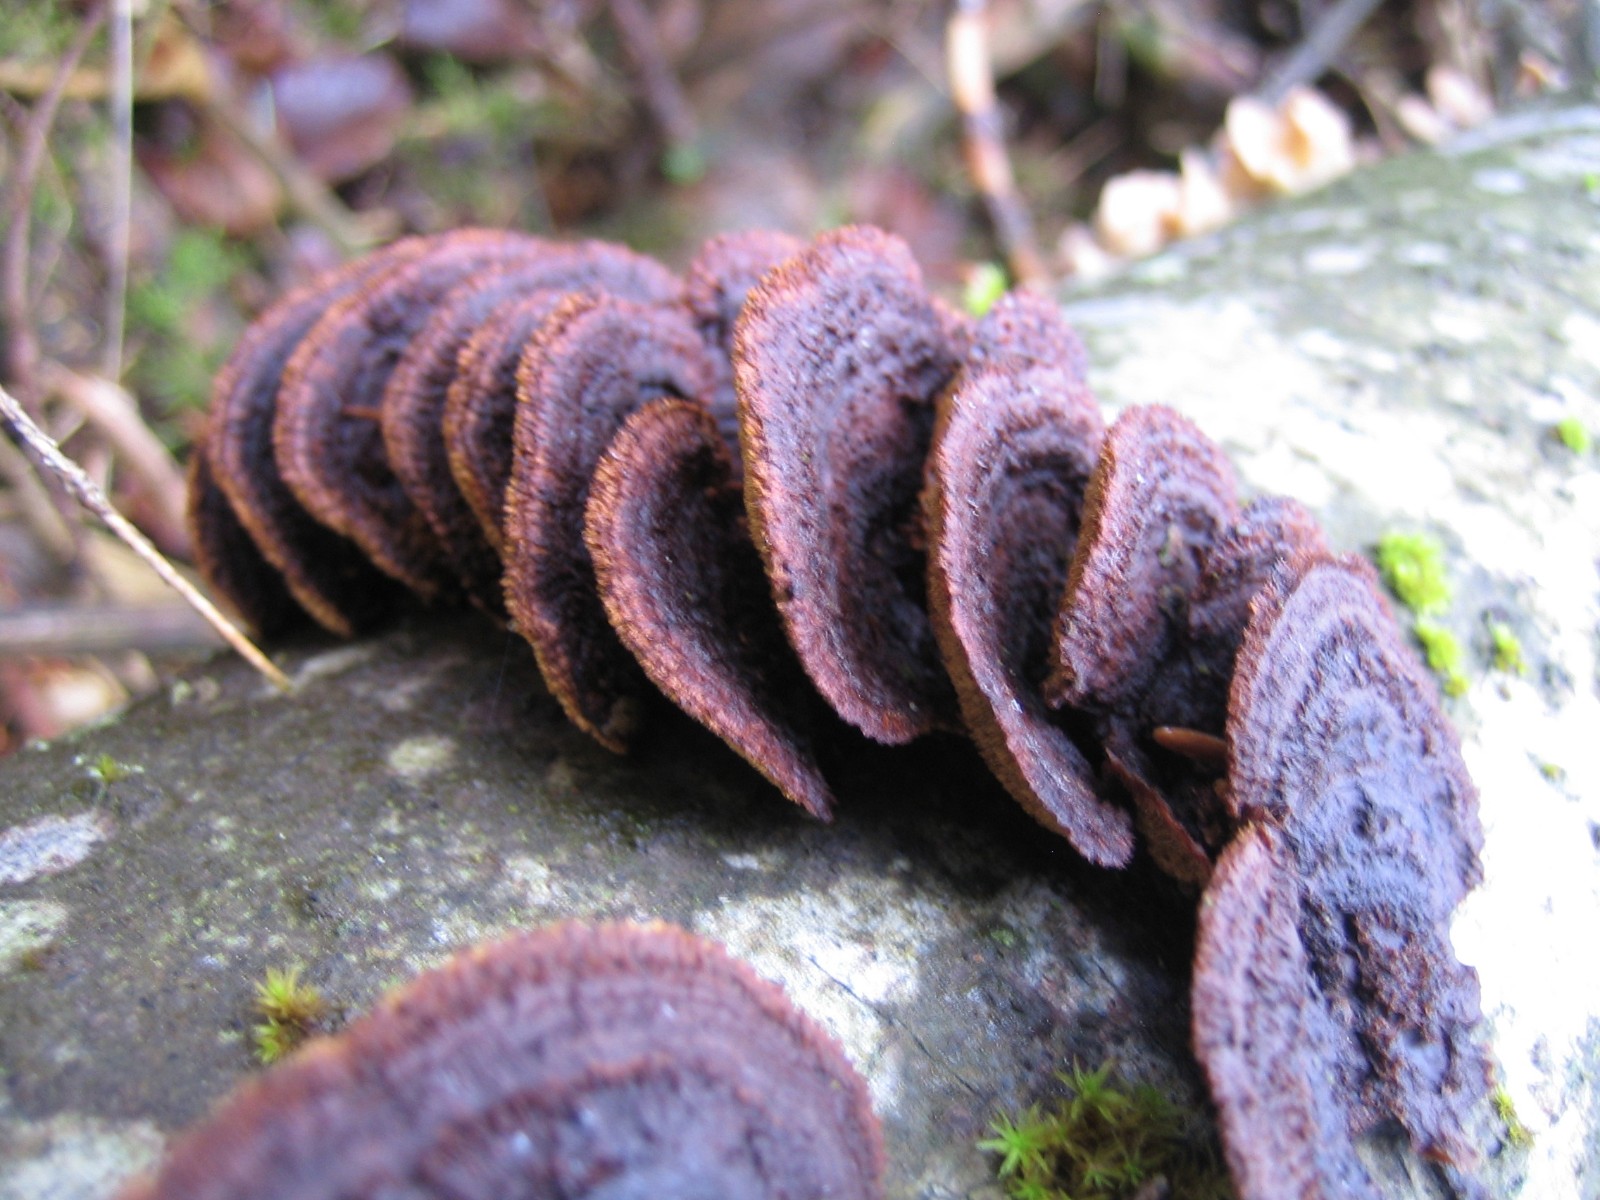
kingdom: Fungi
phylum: Basidiomycota
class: Agaricomycetes
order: Gloeophyllales
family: Gloeophyllaceae
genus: Gloeophyllum
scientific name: Gloeophyllum sepiarium
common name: fyrre-korkhat
